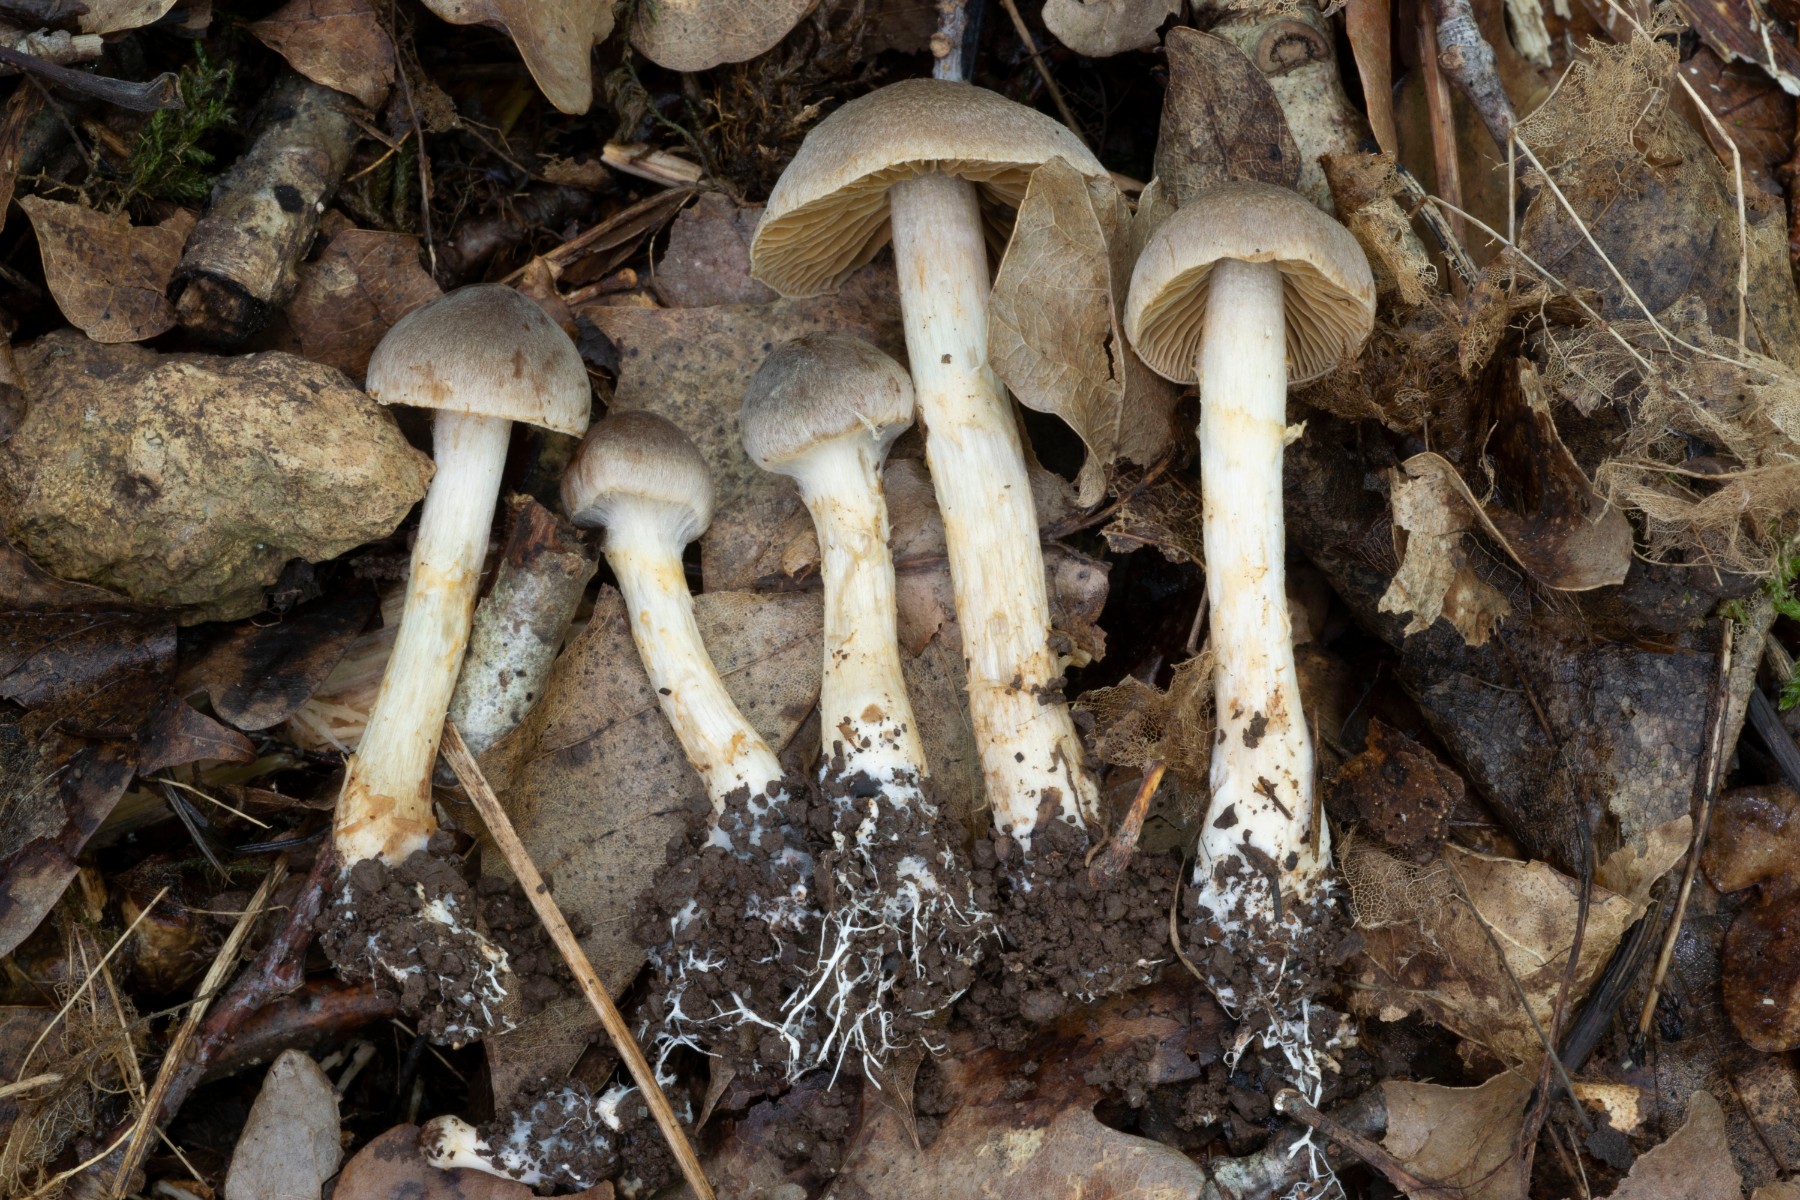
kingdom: Fungi
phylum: Basidiomycota
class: Agaricomycetes
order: Agaricales
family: Cortinariaceae
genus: Cortinarius
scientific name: Cortinarius saniosus
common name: gultrævlet slørhat
